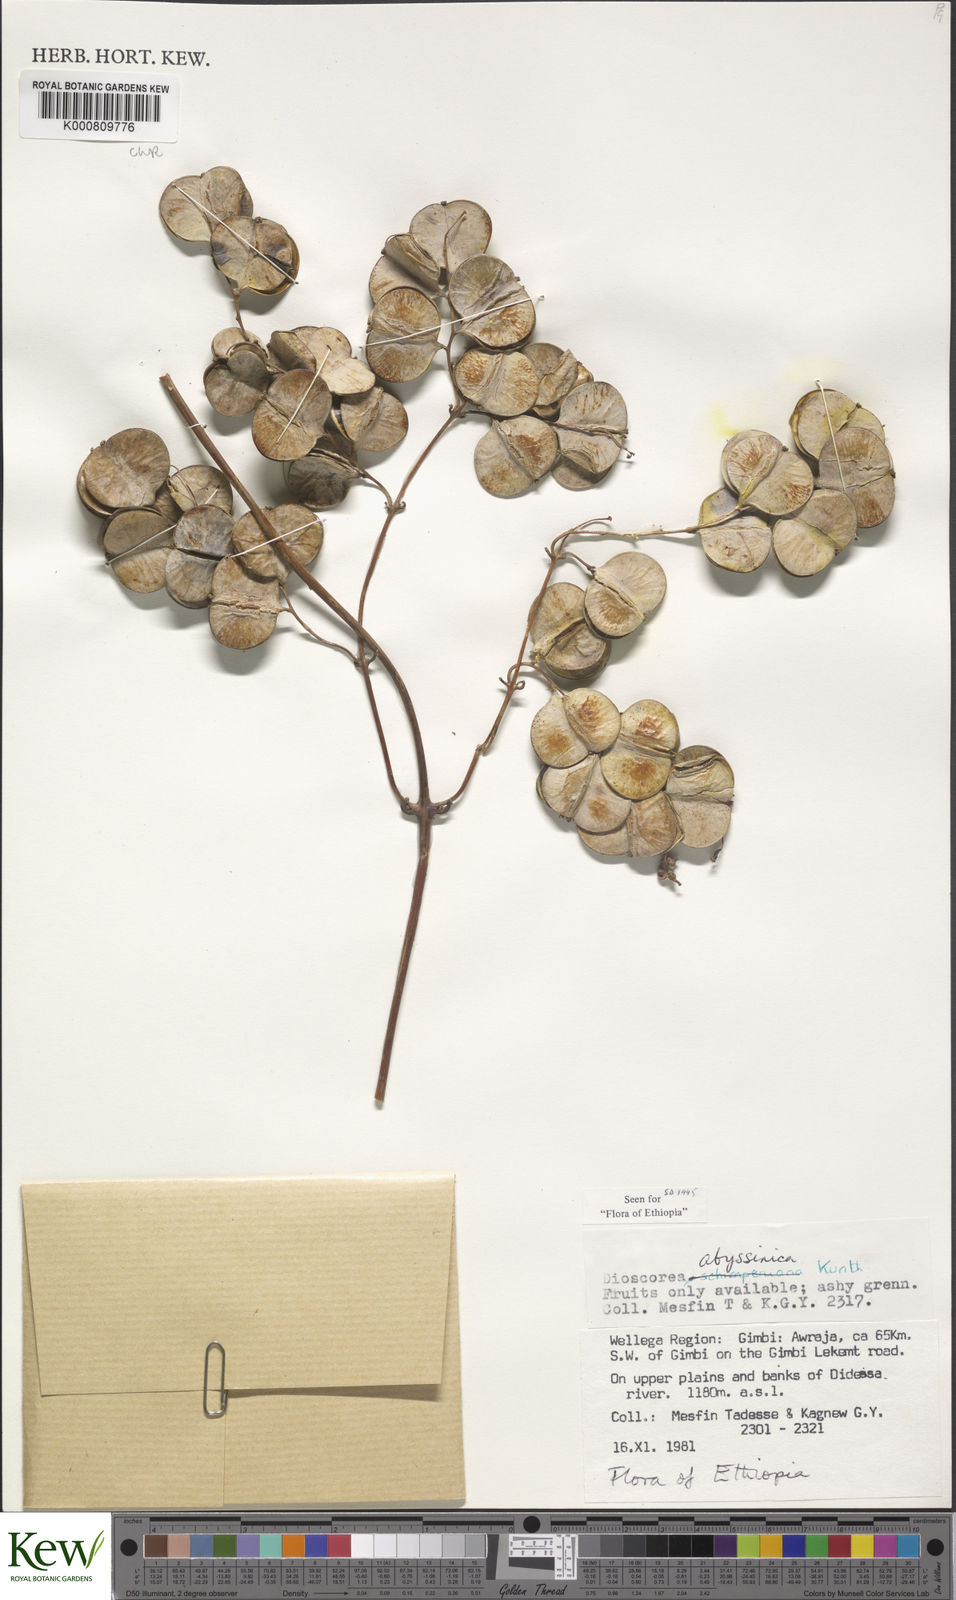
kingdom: Plantae
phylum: Tracheophyta
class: Liliopsida
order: Dioscoreales
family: Dioscoreaceae
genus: Dioscorea
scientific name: Dioscorea abyssinica
